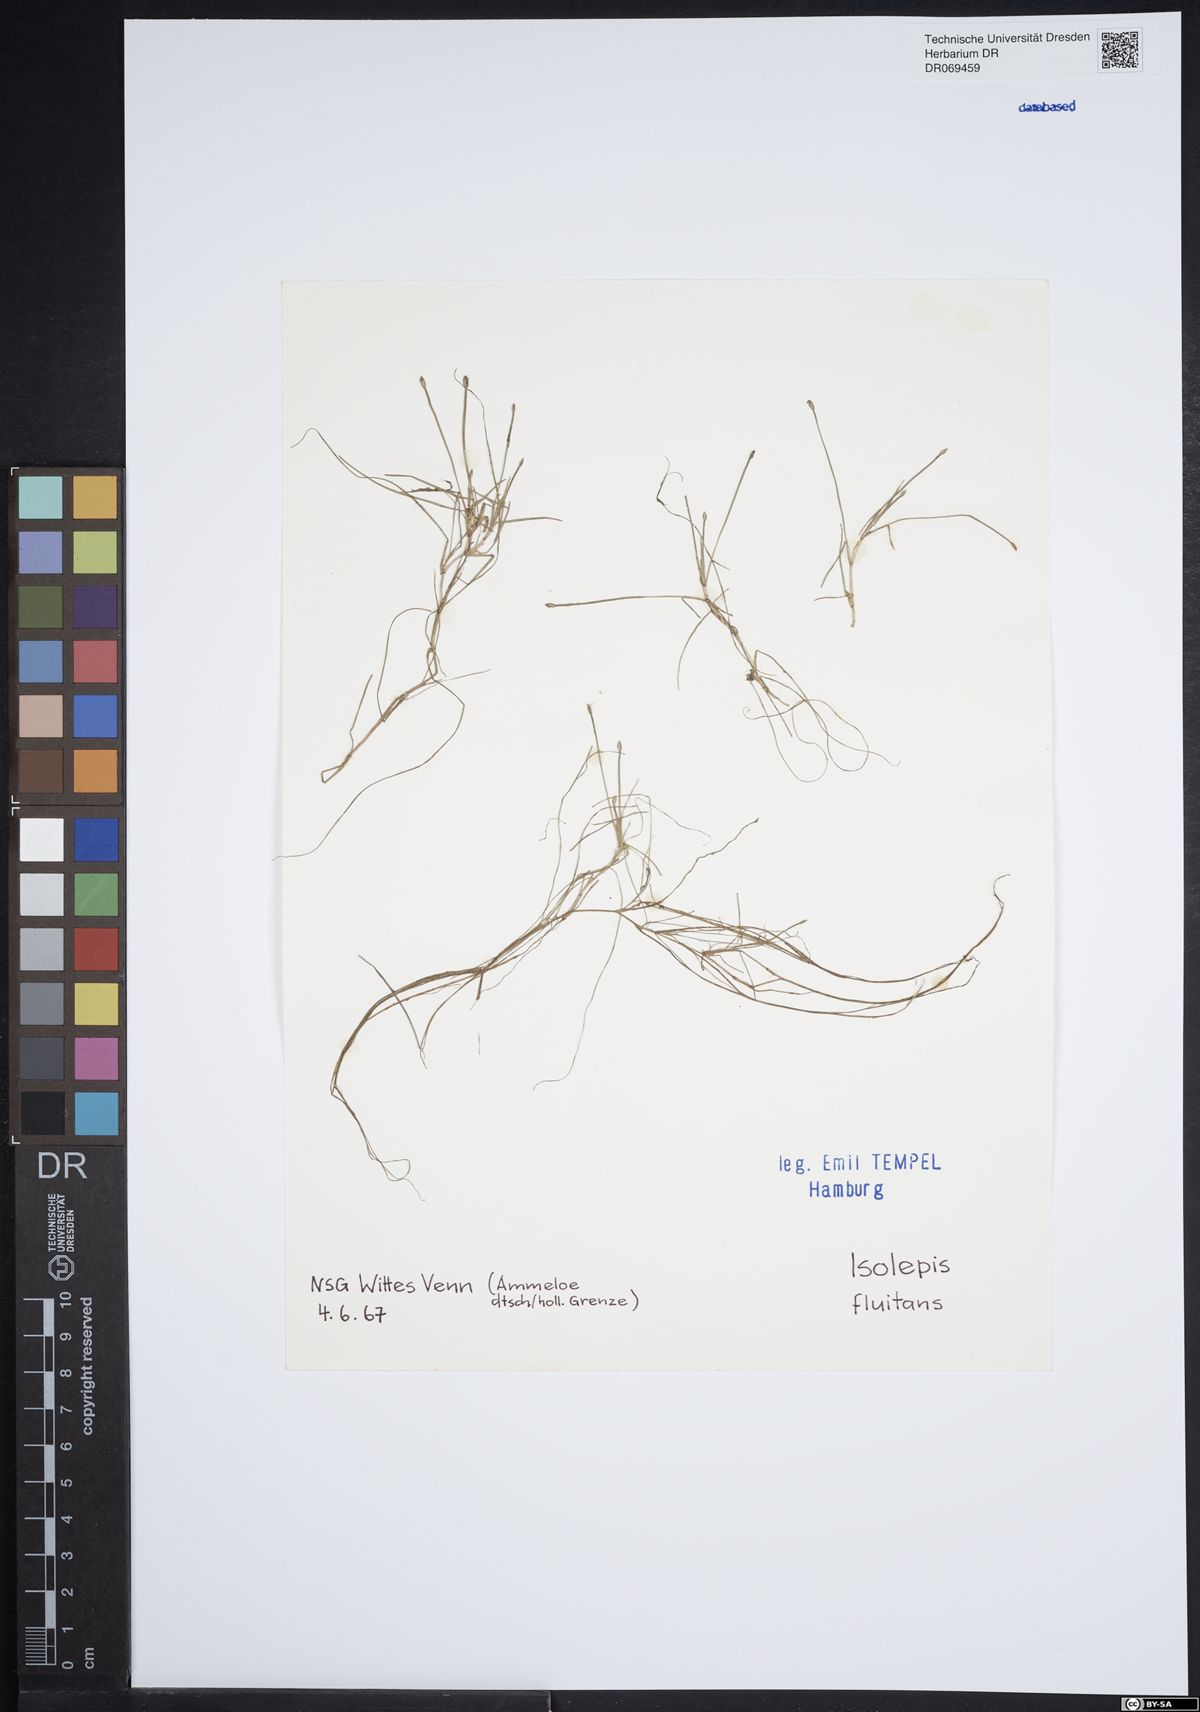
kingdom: Plantae
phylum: Tracheophyta
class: Liliopsida
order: Poales
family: Cyperaceae
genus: Isolepis
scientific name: Isolepis fluitans
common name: Floating club-rush
